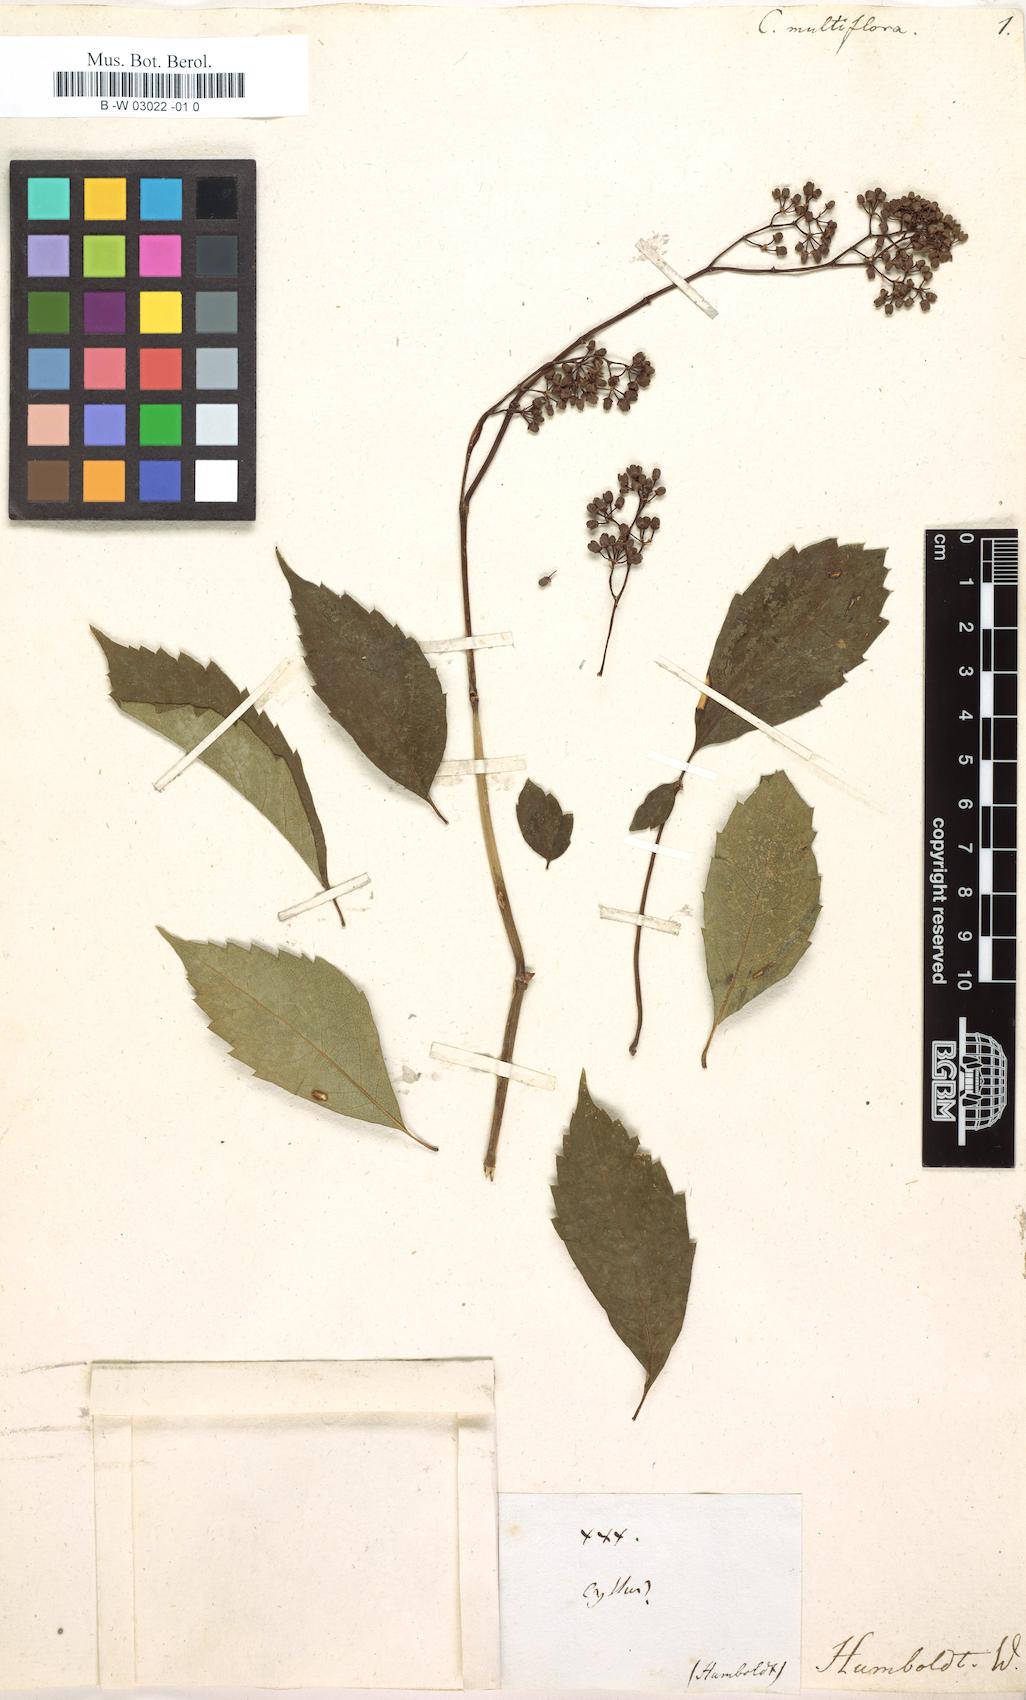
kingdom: Plantae
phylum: Tracheophyta
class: Magnoliopsida
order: Vitales
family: Vitaceae
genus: Clematicissus
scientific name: Clematicissus simsiana
